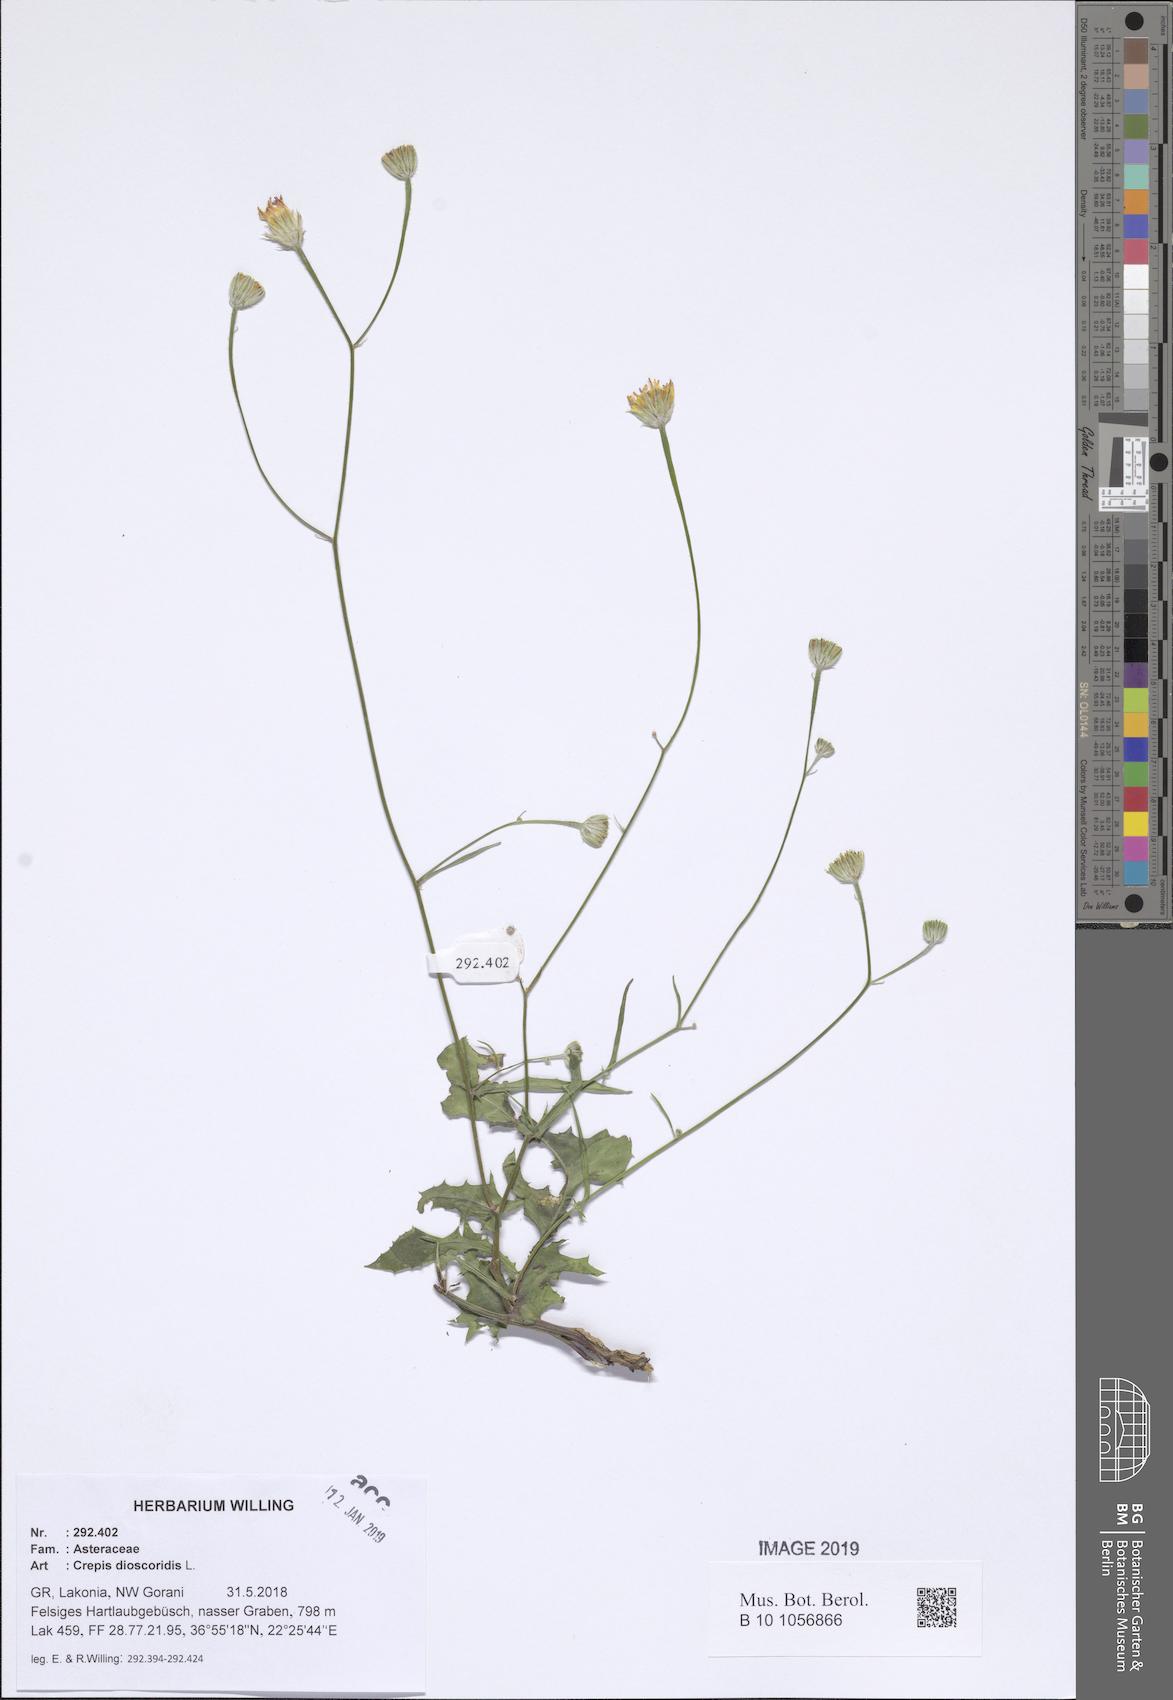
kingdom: Plantae
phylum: Tracheophyta
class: Magnoliopsida
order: Asterales
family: Asteraceae
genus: Crepis
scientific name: Crepis dioscoridis
